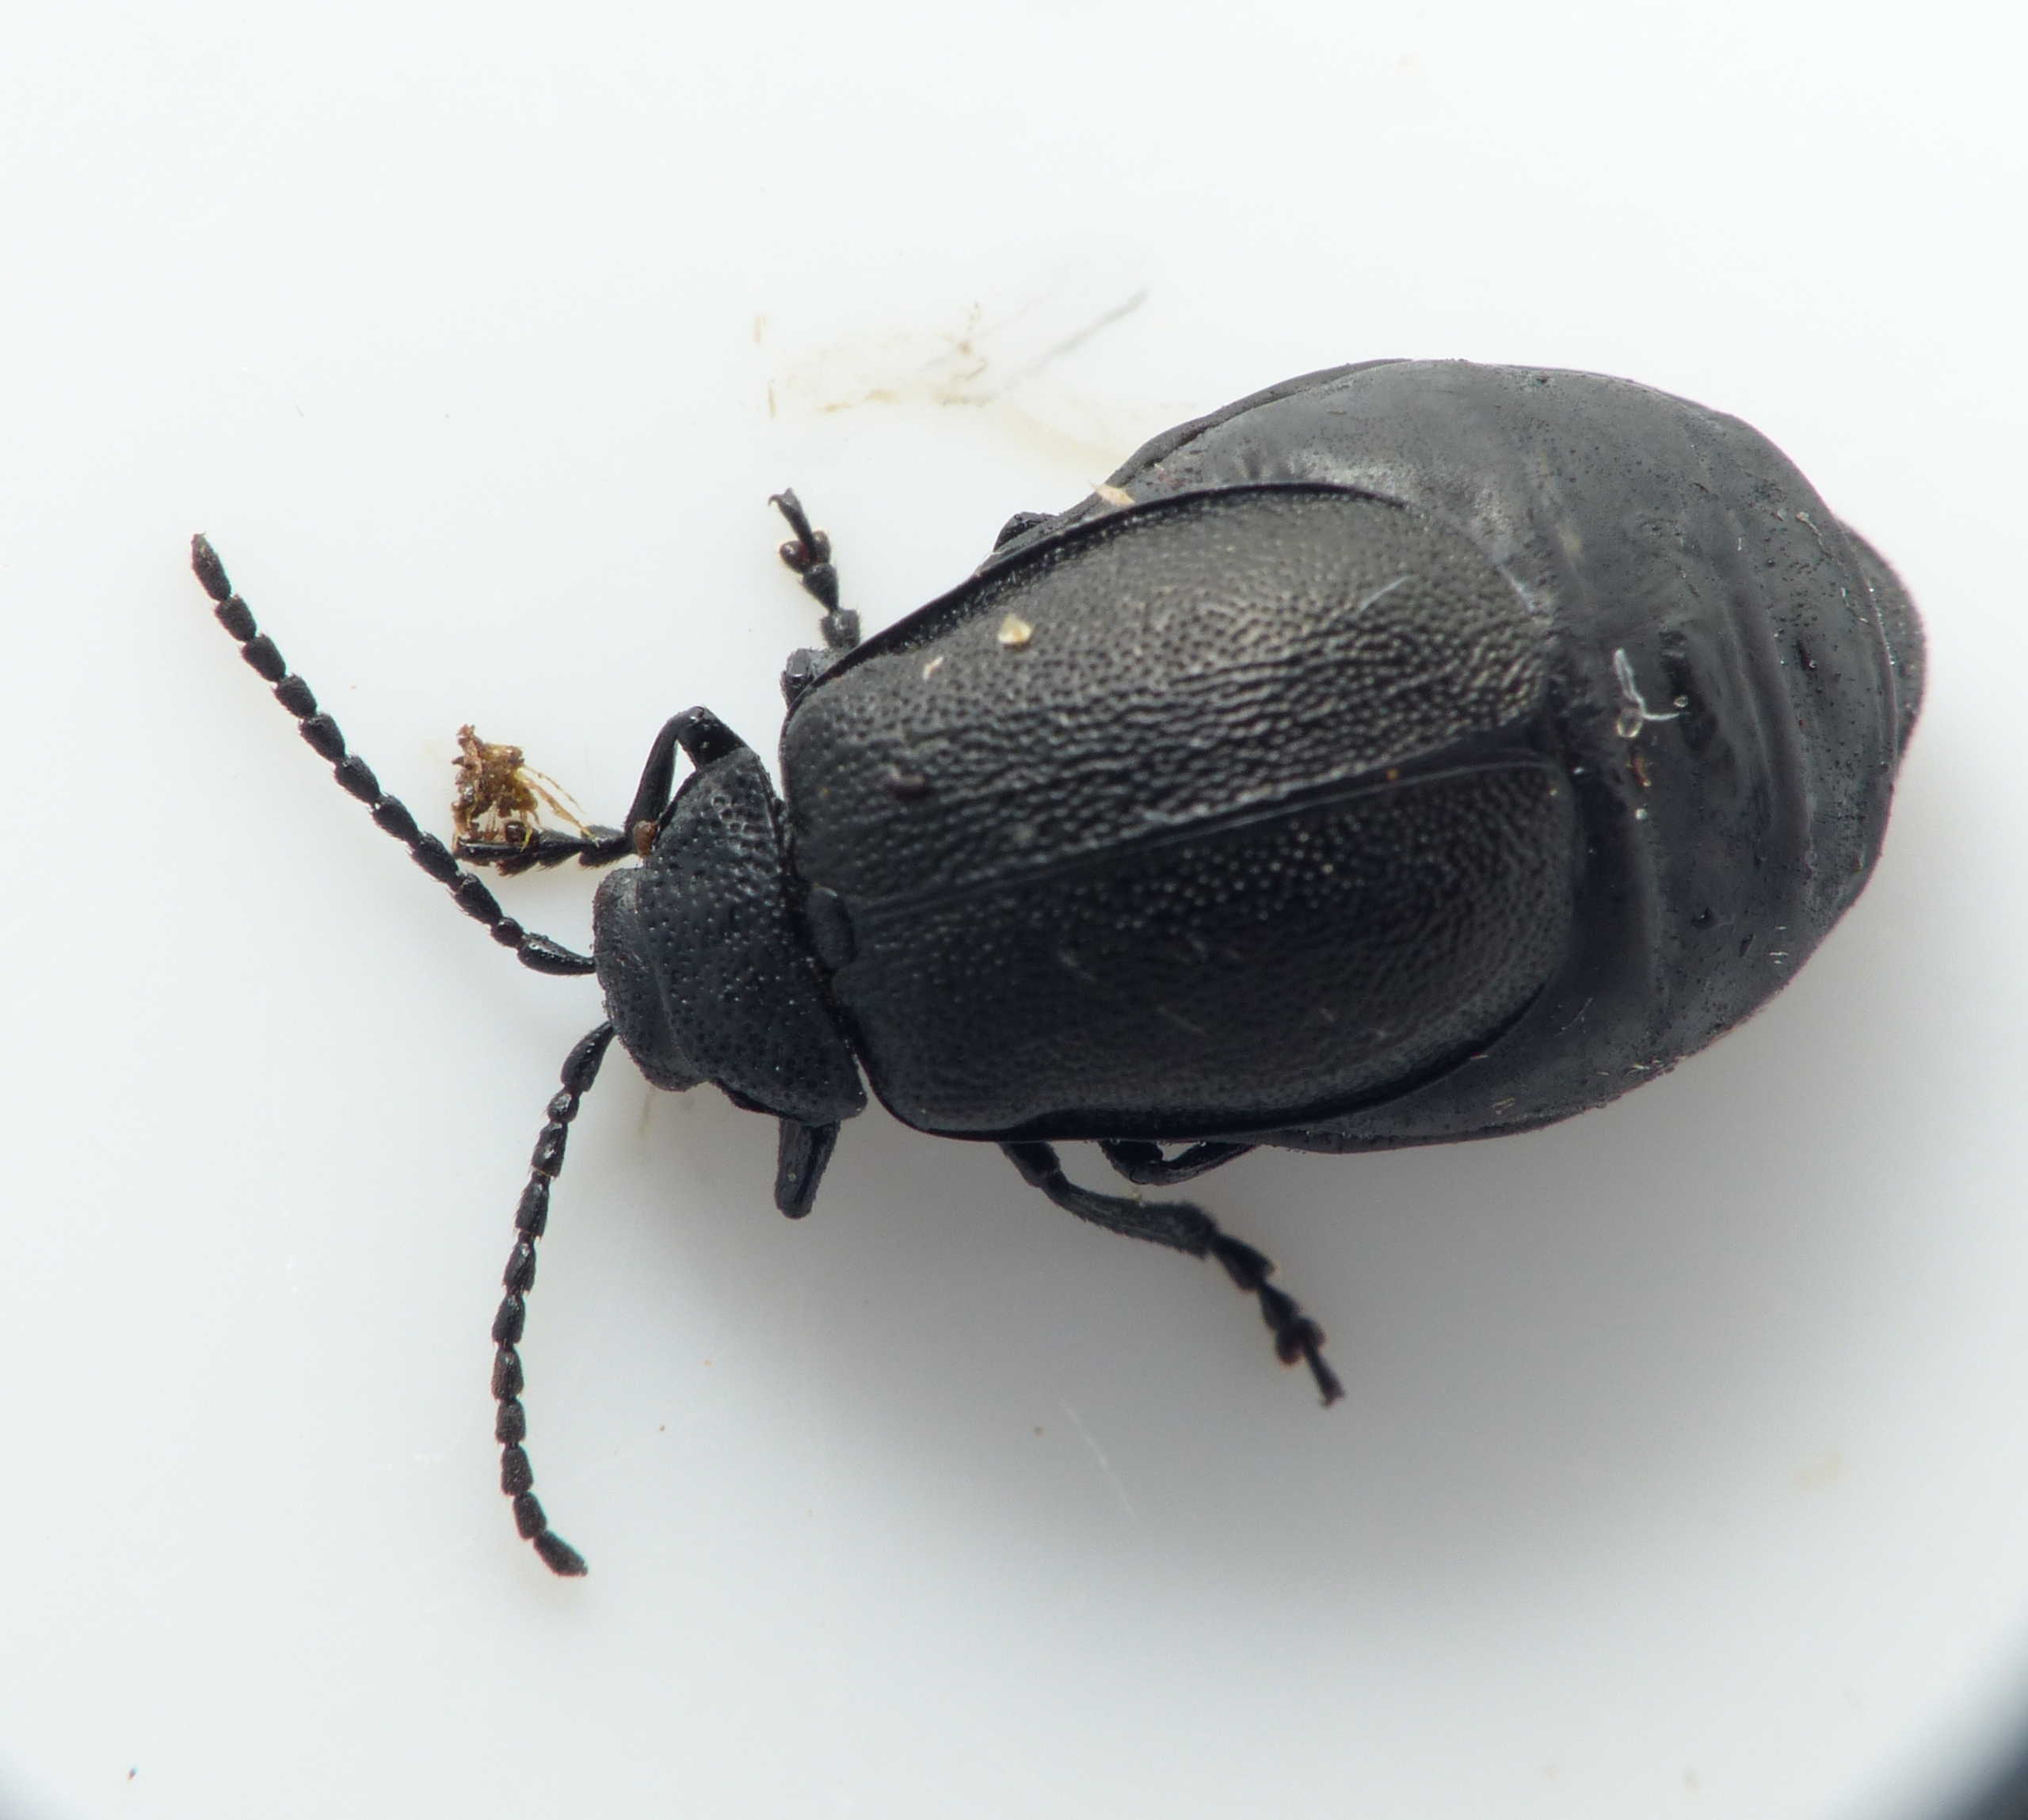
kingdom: Animalia
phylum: Arthropoda
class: Insecta
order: Coleoptera
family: Chrysomelidae
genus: Galeruca
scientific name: Galeruca tanaceti
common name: Rejnfanbladbille
